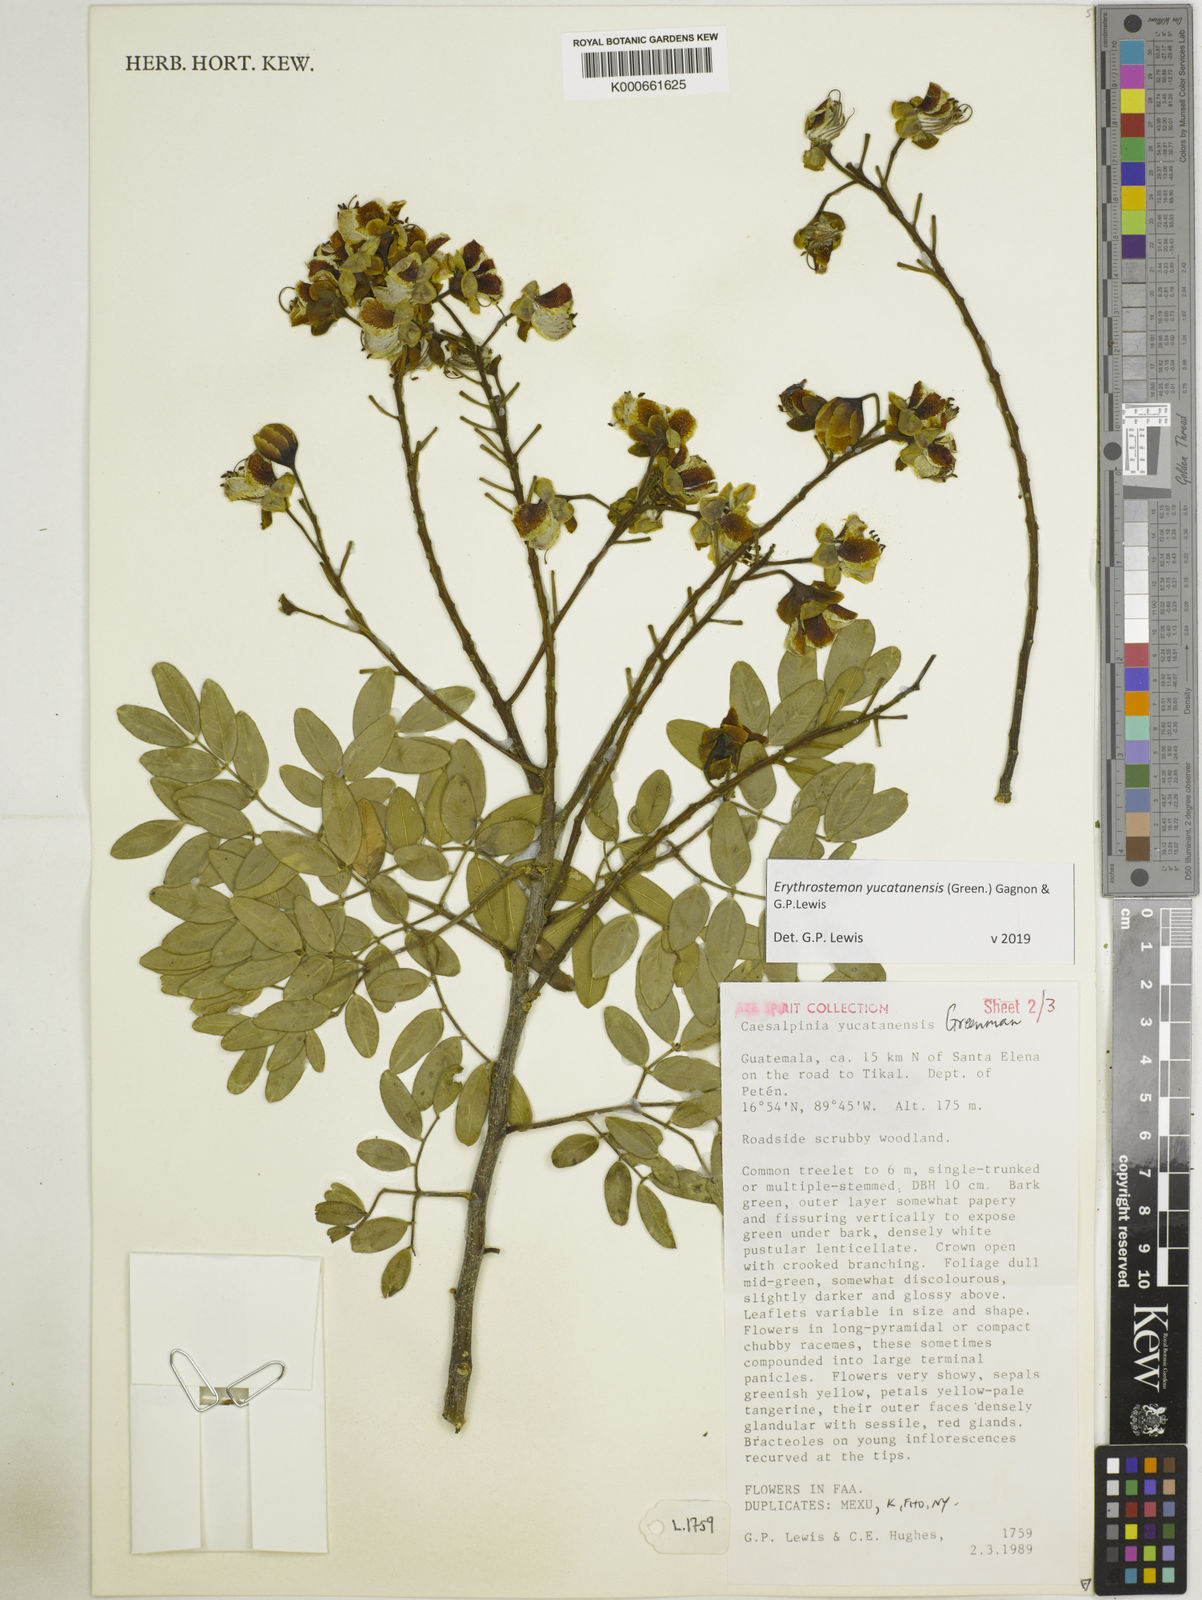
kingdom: Plantae
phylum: Tracheophyta
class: Magnoliopsida
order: Fabales
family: Fabaceae
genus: Caesalpinia
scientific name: Caesalpinia
